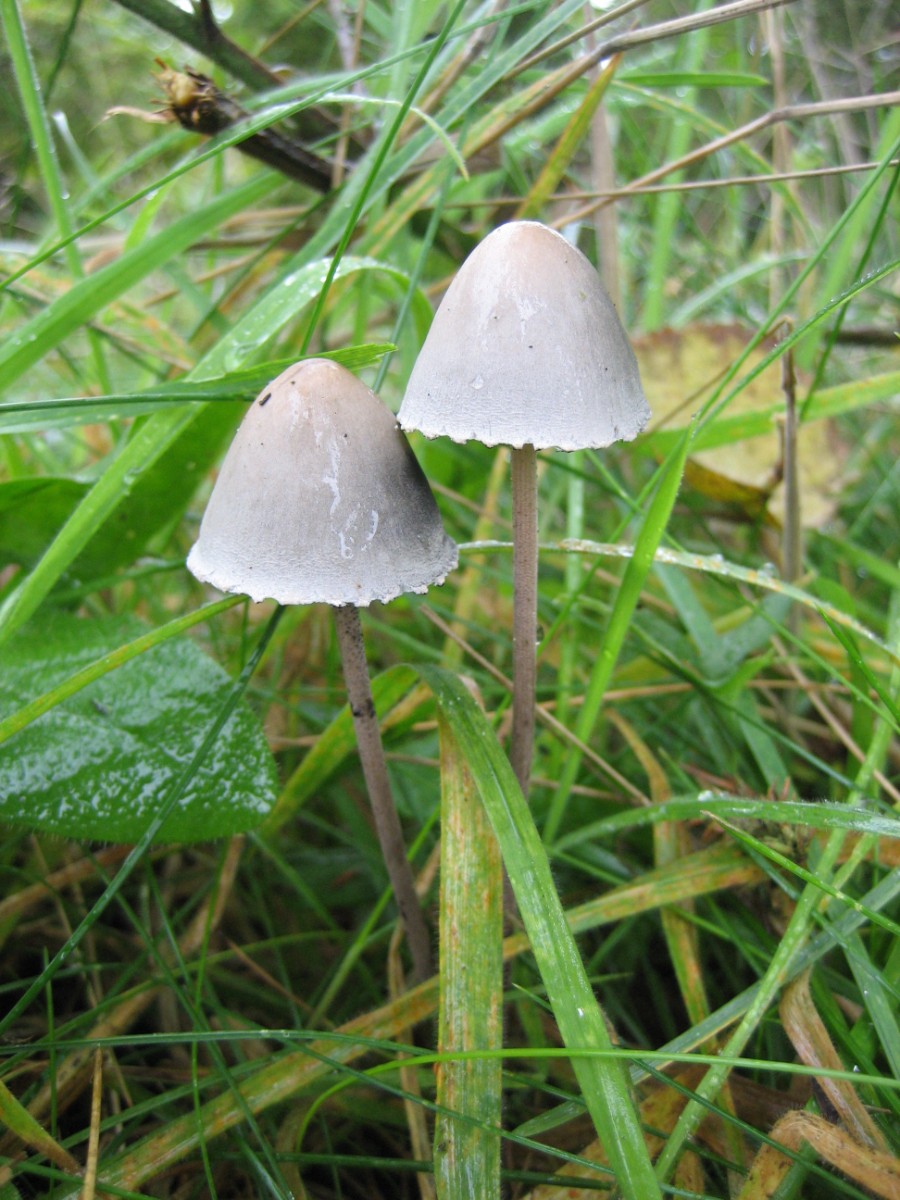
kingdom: Fungi
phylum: Basidiomycota
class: Agaricomycetes
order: Agaricales
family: Bolbitiaceae
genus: Panaeolus
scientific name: Panaeolus papilionaceus
